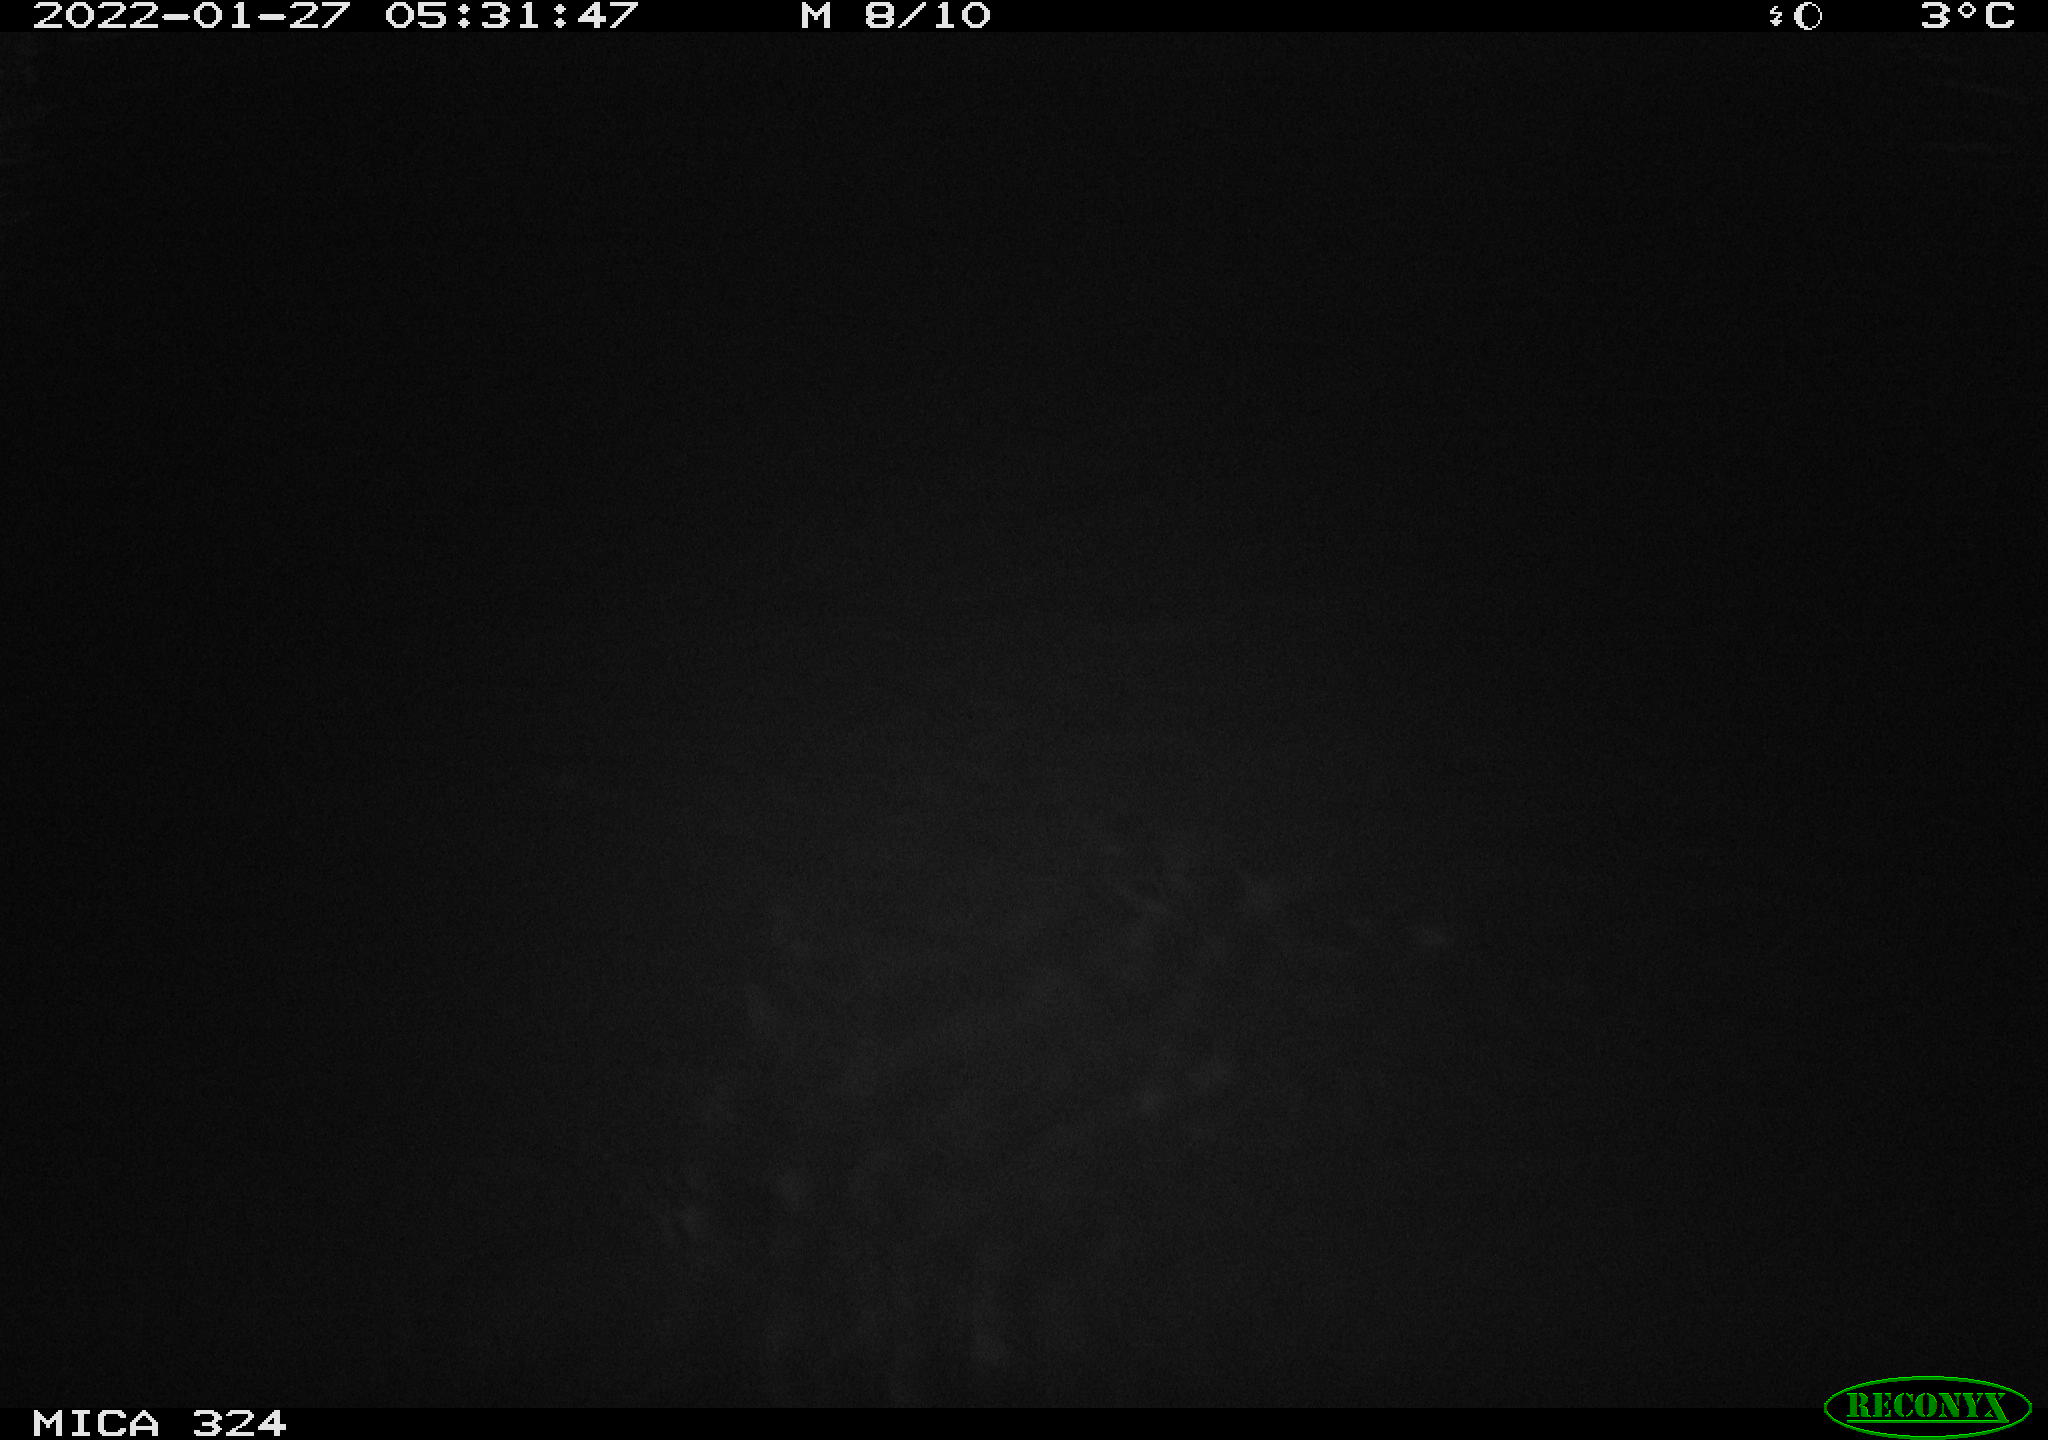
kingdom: Animalia
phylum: Chordata
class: Mammalia
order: Rodentia
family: Cricetidae
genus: Ondatra
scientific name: Ondatra zibethicus
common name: Muskrat
